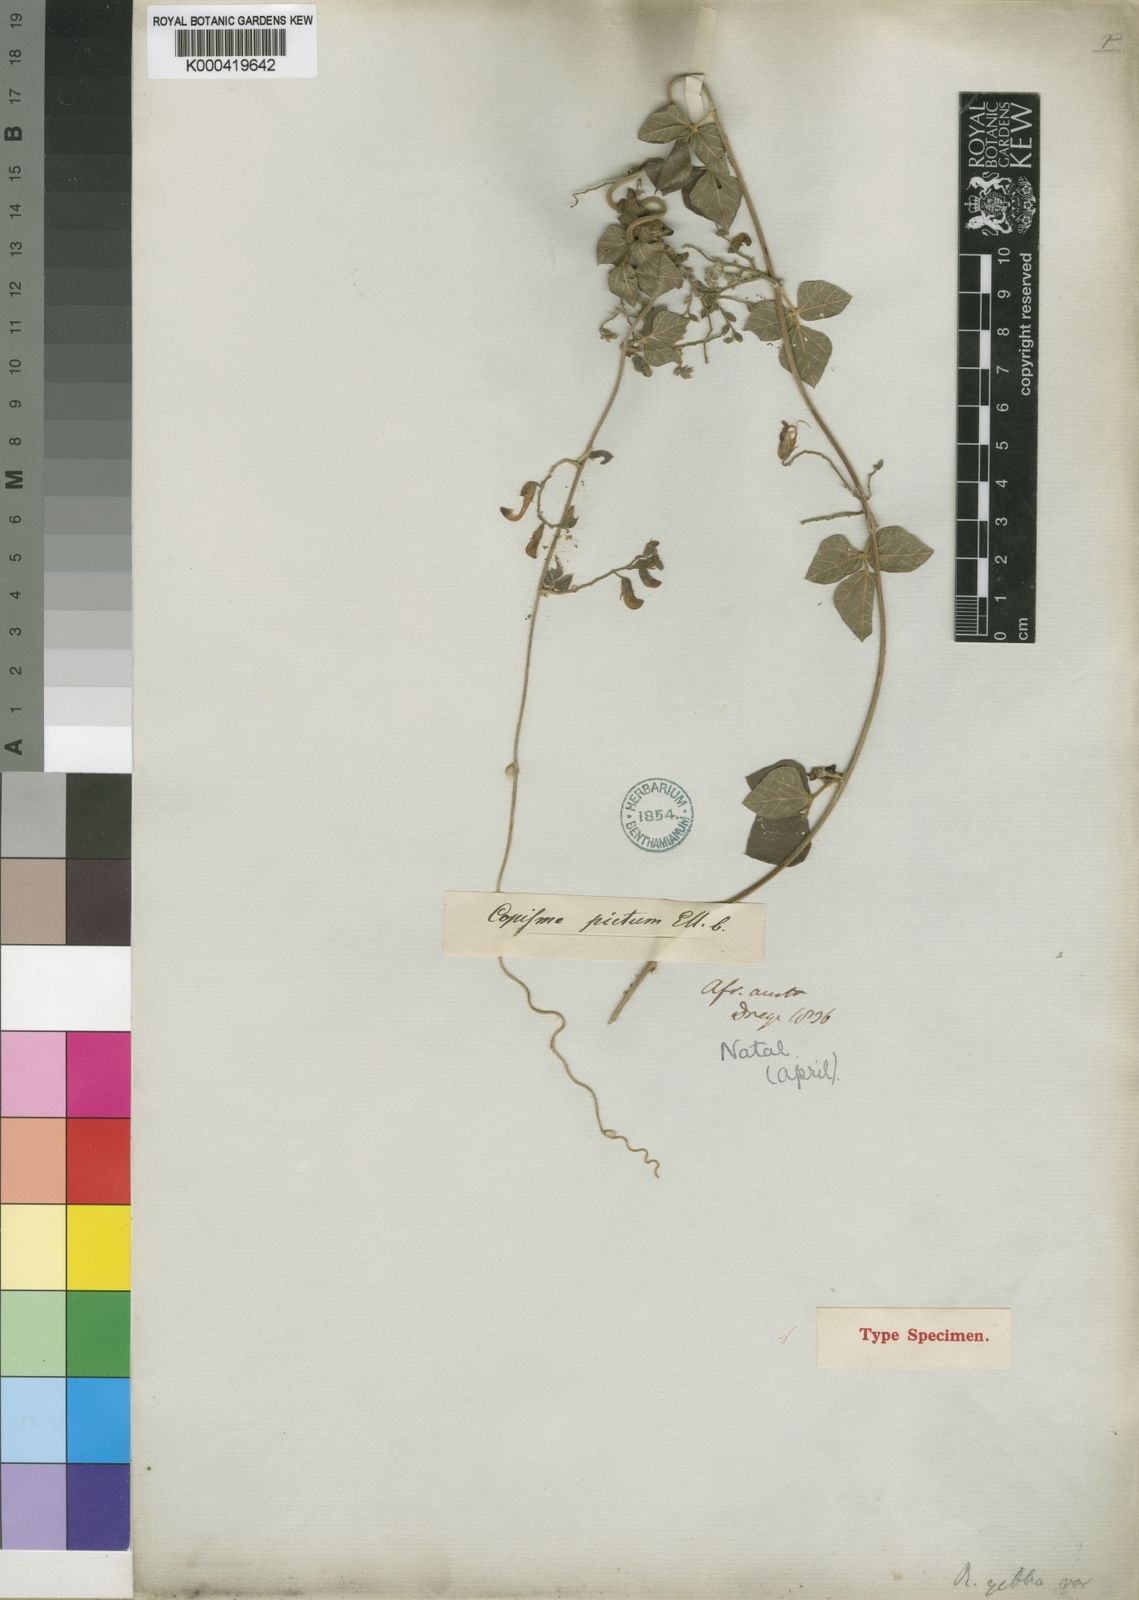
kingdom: Plantae
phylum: Tracheophyta
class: Magnoliopsida
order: Fabales
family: Fabaceae
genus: Rhynchosia
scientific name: Rhynchosia caribaea
